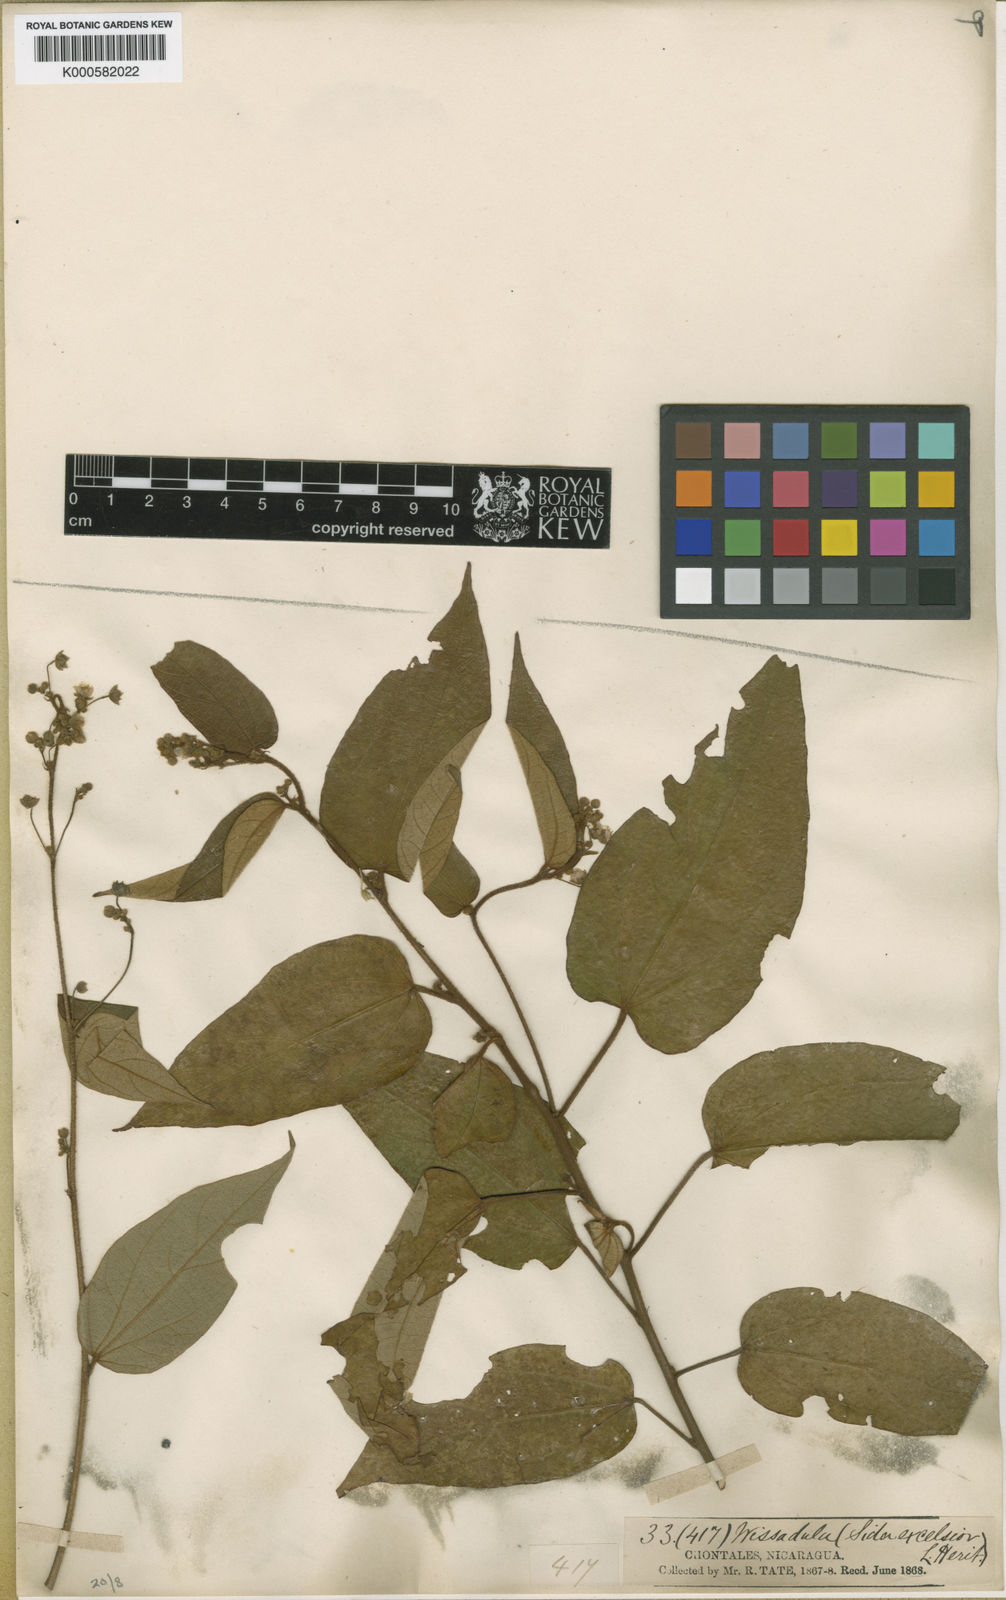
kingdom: Plantae
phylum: Tracheophyta
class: Magnoliopsida
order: Malvales
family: Malvaceae
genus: Wissadula
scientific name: Wissadula excelsior
